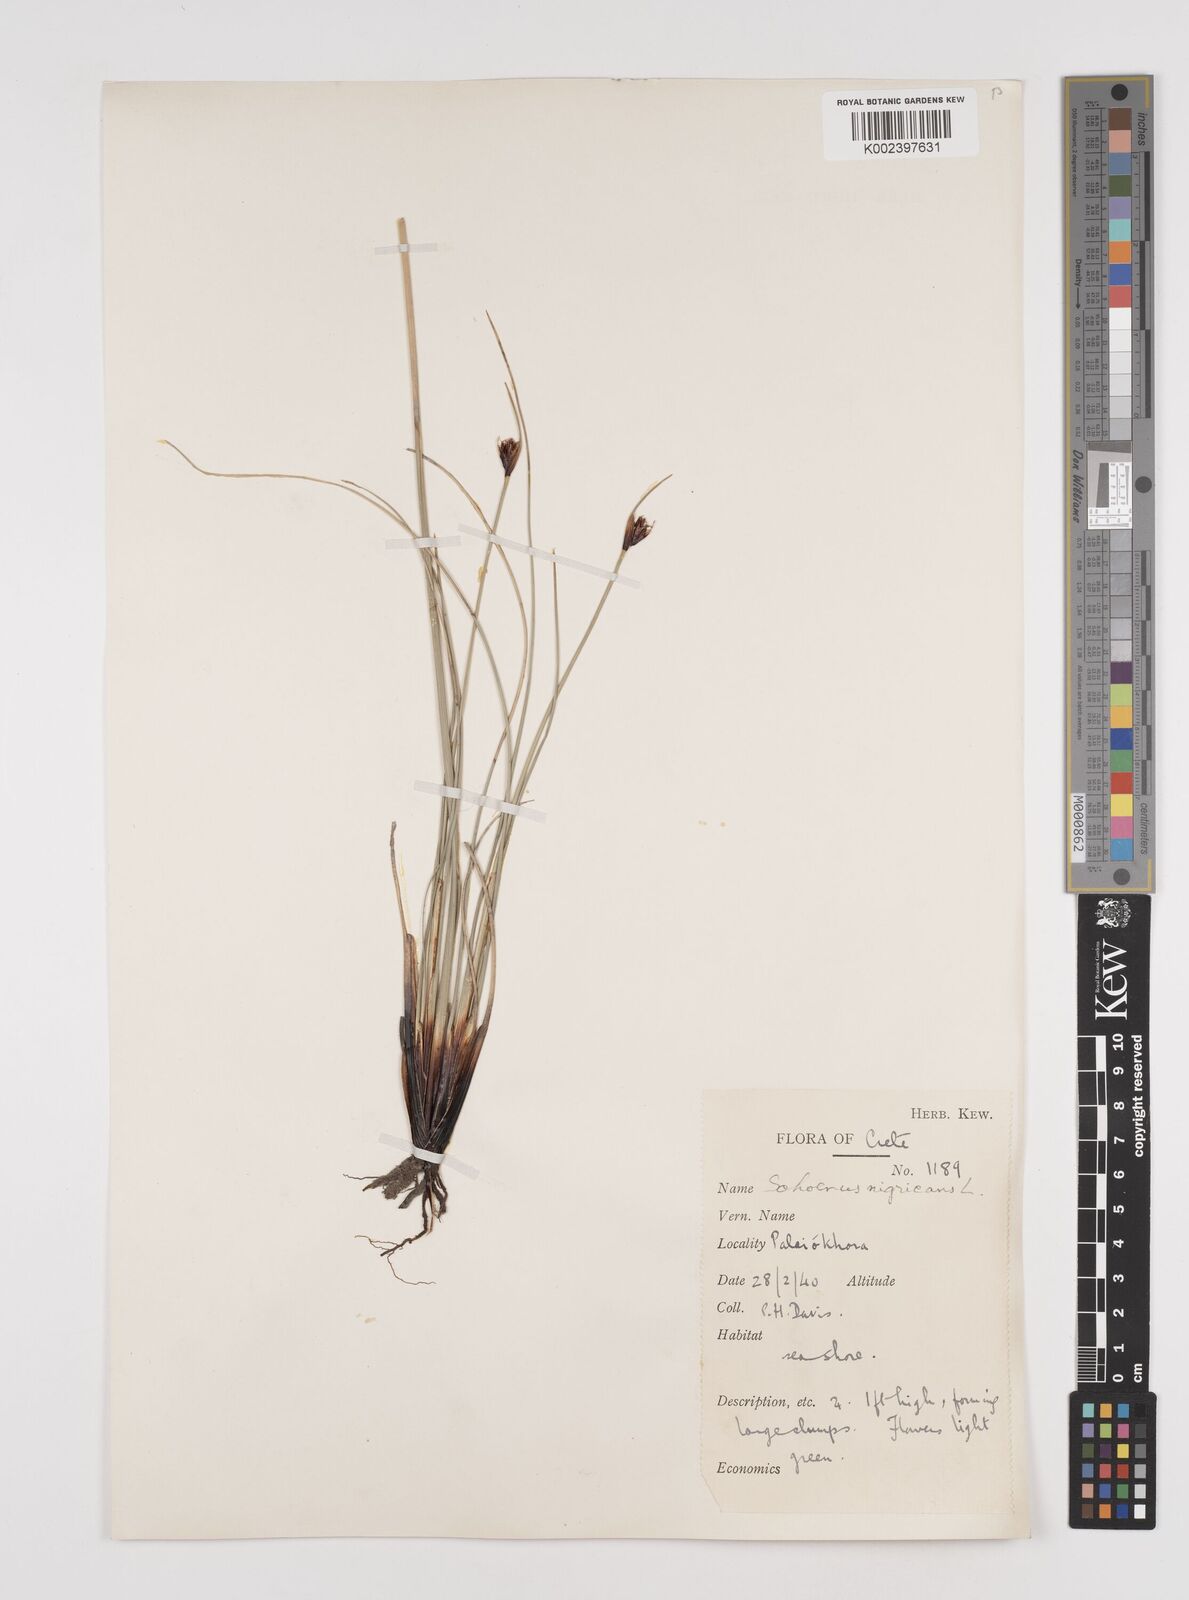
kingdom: Plantae
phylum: Tracheophyta
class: Liliopsida
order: Poales
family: Cyperaceae
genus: Schoenus
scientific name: Schoenus nigricans
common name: Black bog-rush
